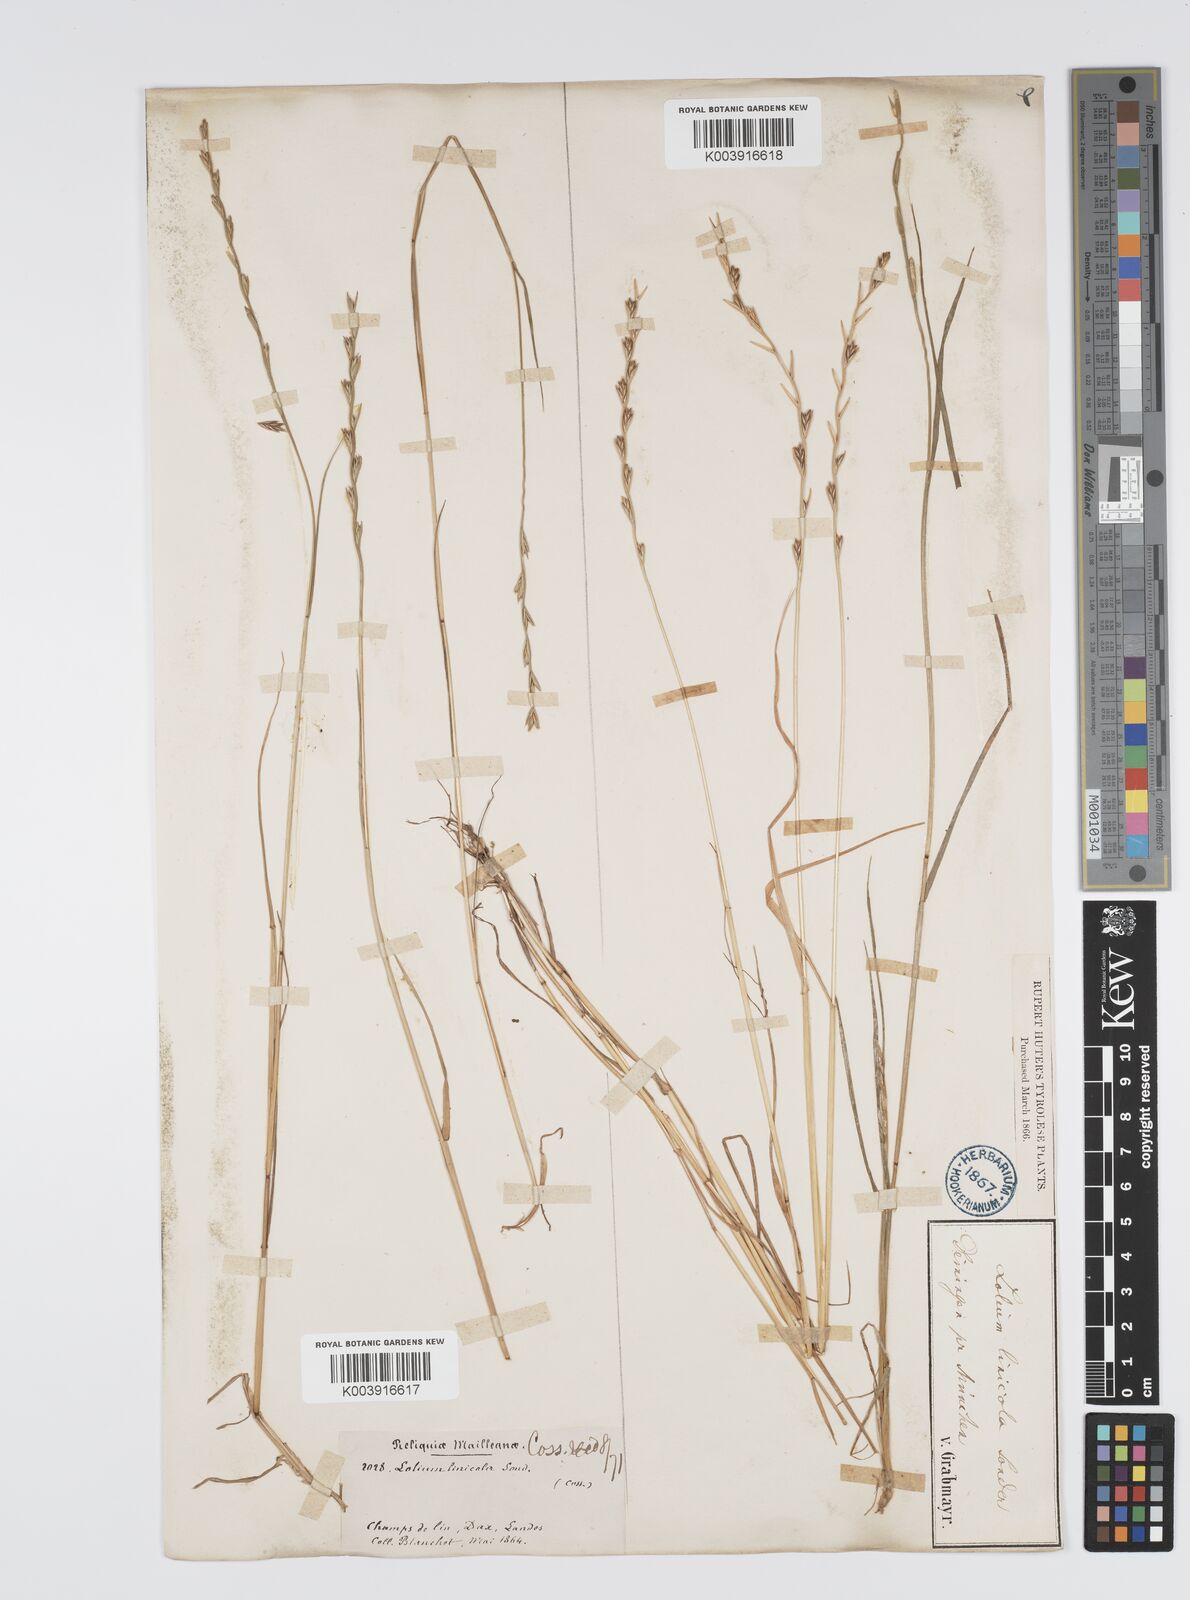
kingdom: Plantae
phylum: Tracheophyta
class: Liliopsida
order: Poales
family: Poaceae
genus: Lolium
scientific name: Lolium remotum
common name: Flaxfield rye-grass
